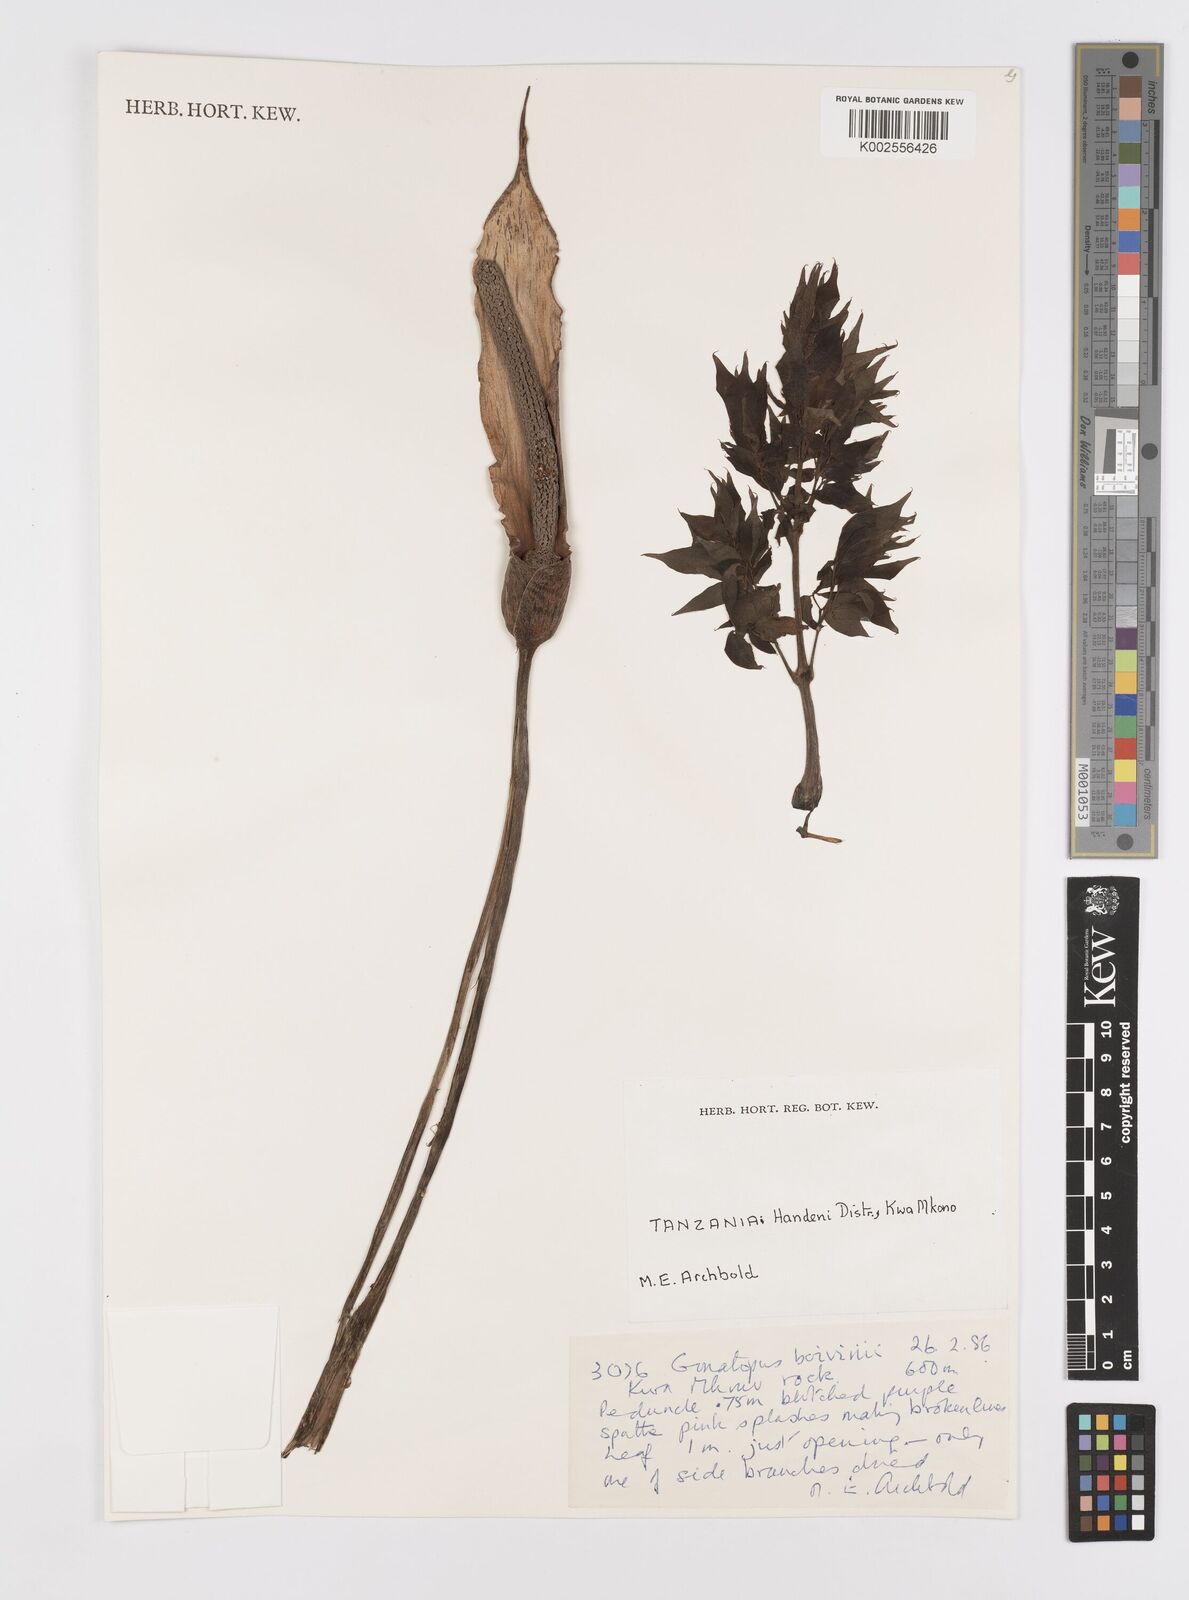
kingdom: Plantae
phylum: Tracheophyta
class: Liliopsida
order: Alismatales
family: Araceae
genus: Gonatopus
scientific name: Gonatopus boivinii
